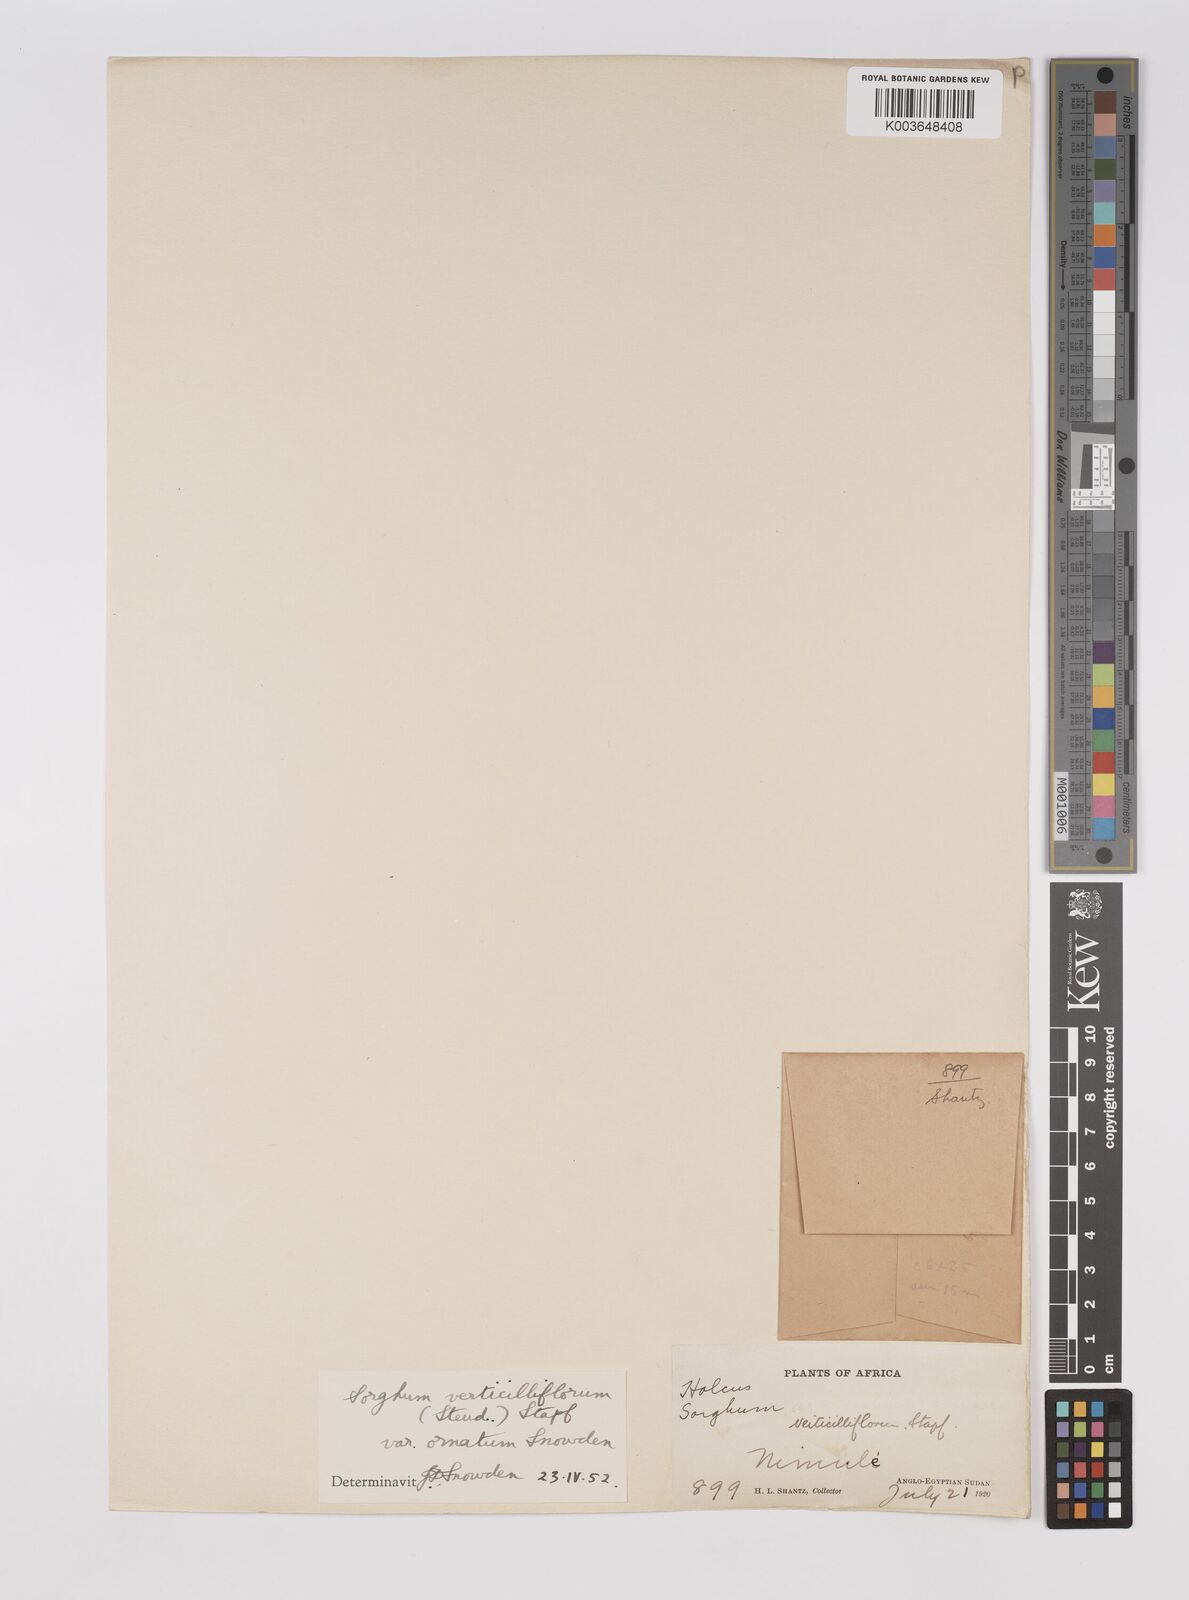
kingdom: Plantae
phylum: Tracheophyta
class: Liliopsida
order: Poales
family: Poaceae
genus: Sorghum
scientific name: Sorghum arundinaceum
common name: Sorghum
